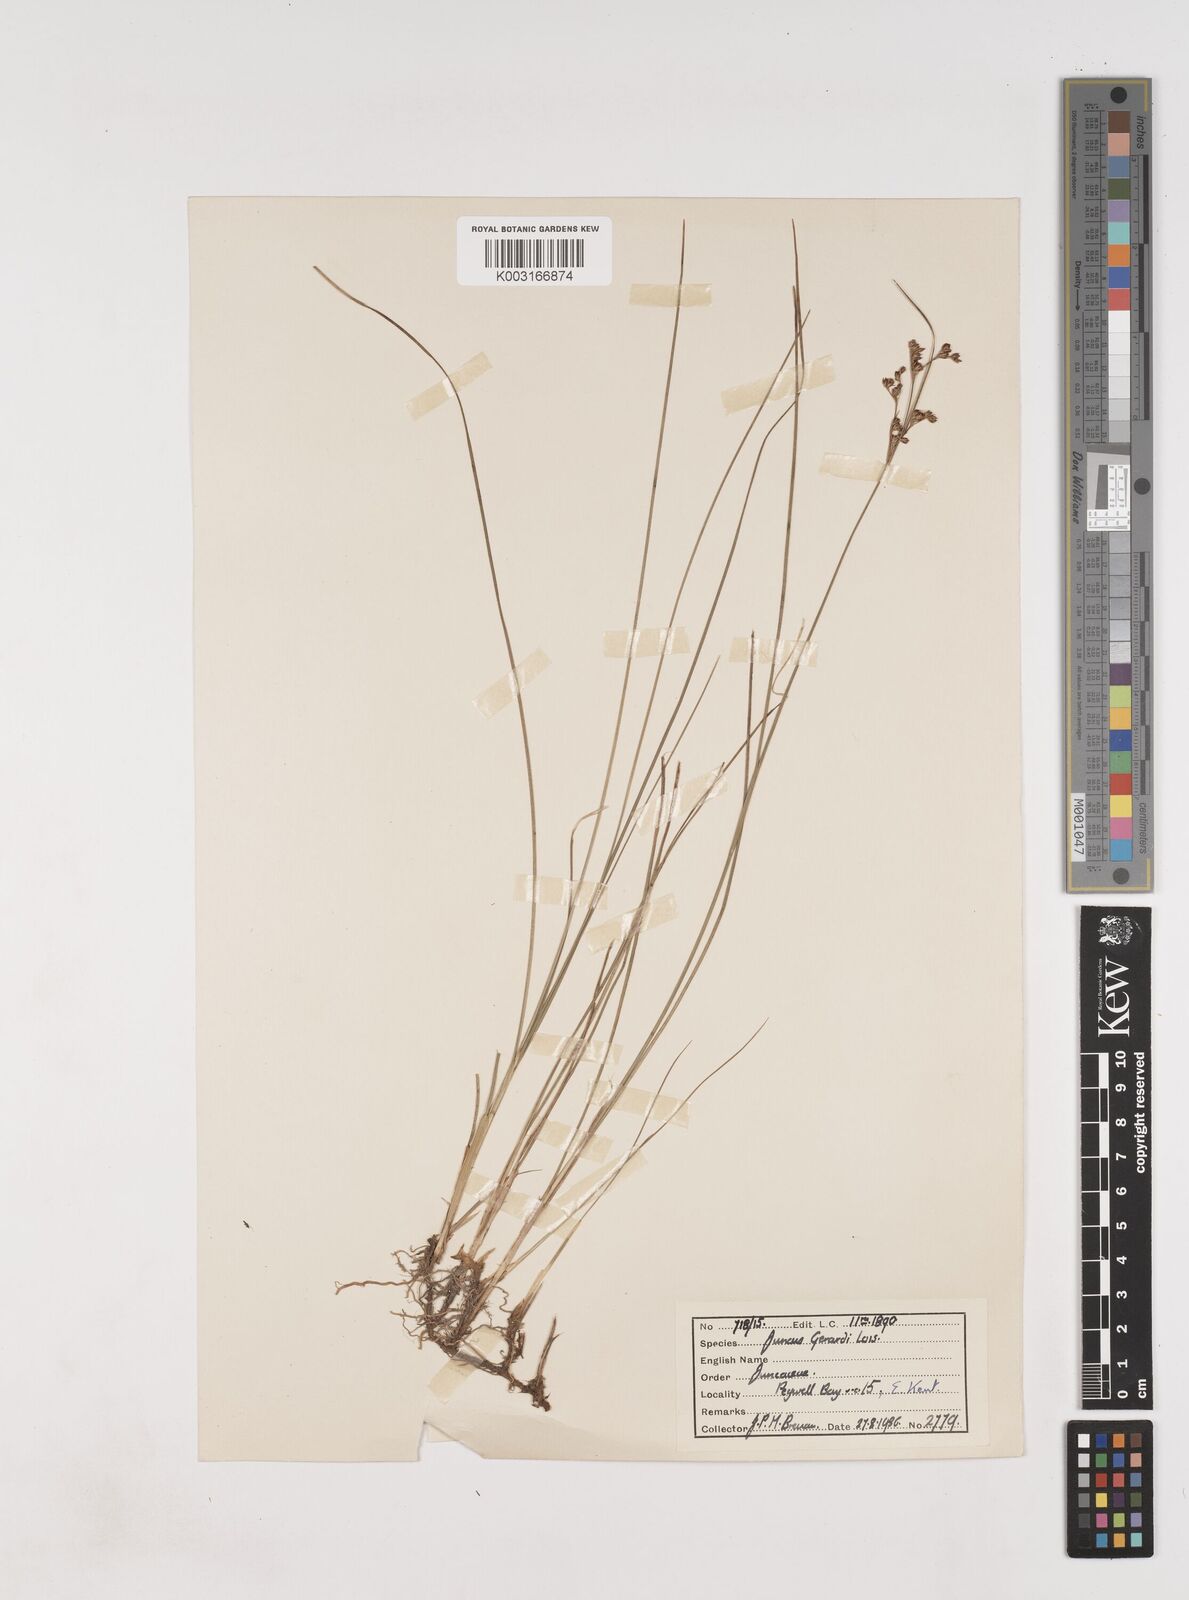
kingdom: Plantae
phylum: Tracheophyta
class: Liliopsida
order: Poales
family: Juncaceae
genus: Juncus
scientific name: Juncus gerardi
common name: Saltmarsh rush
